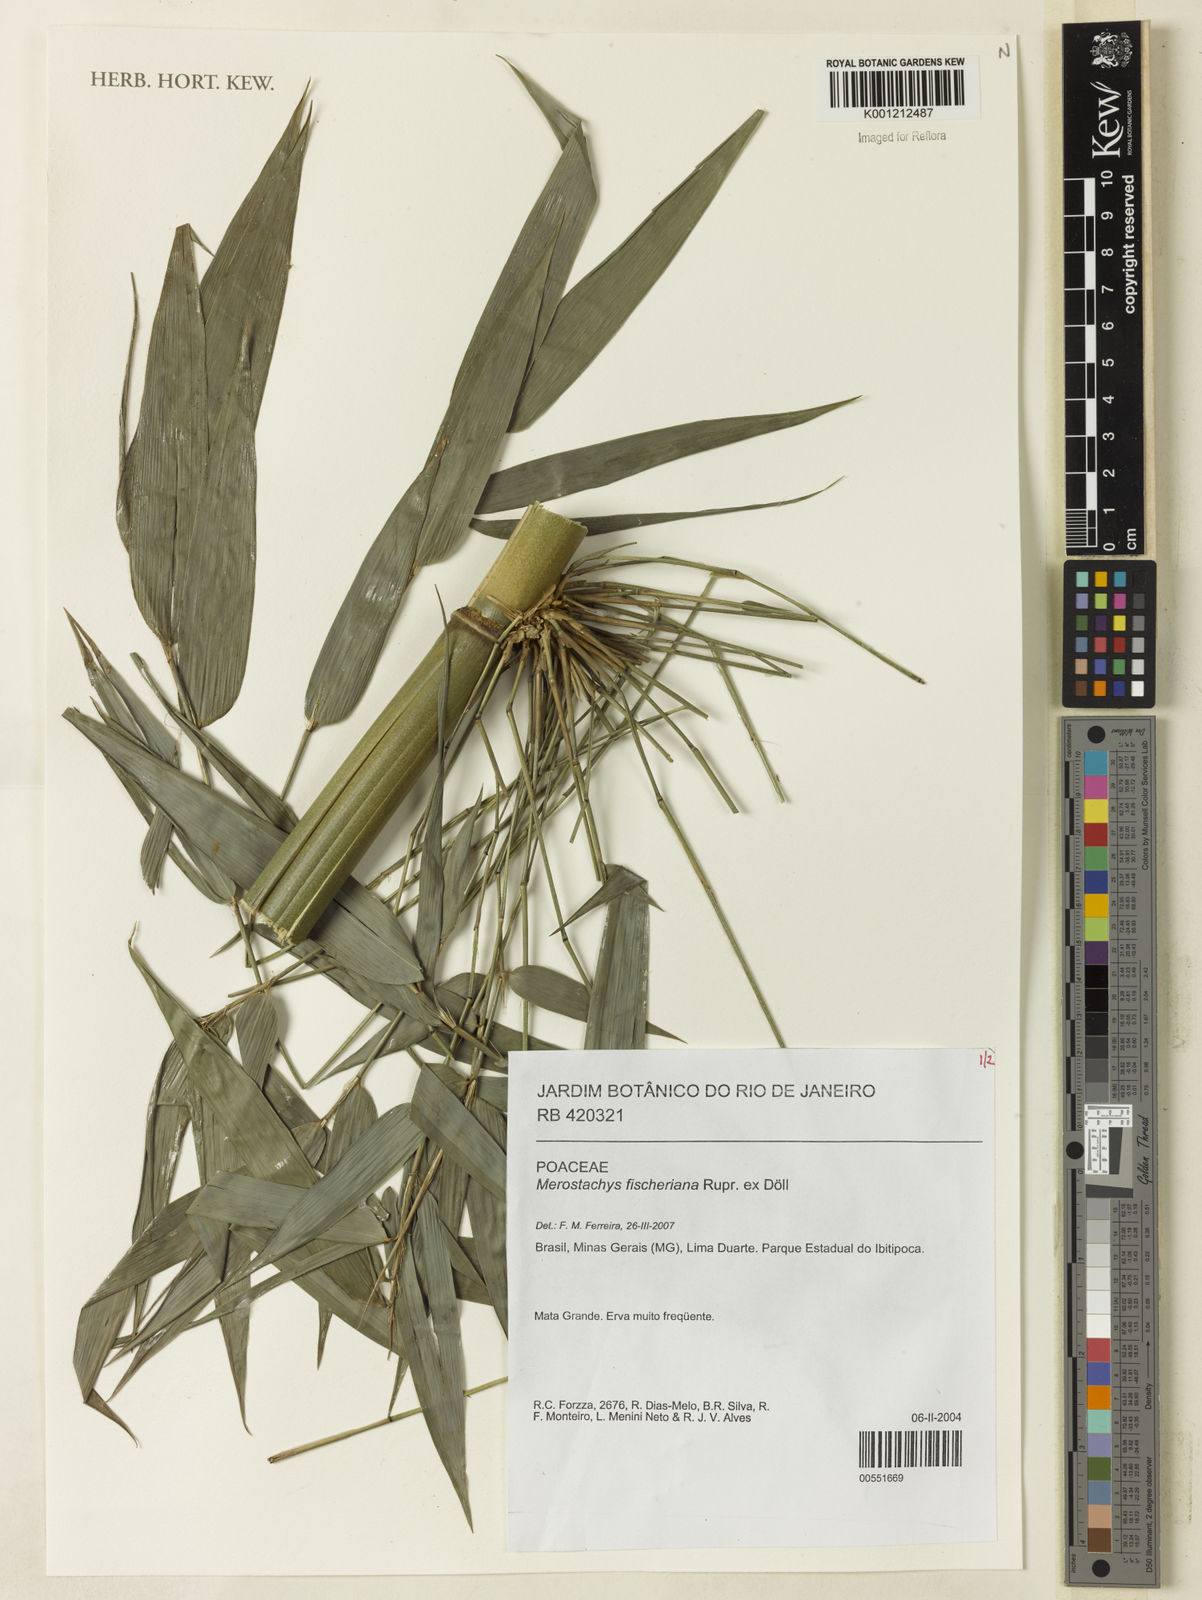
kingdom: Plantae
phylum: Tracheophyta
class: Liliopsida
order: Poales
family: Poaceae
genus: Merostachys
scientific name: Merostachys
